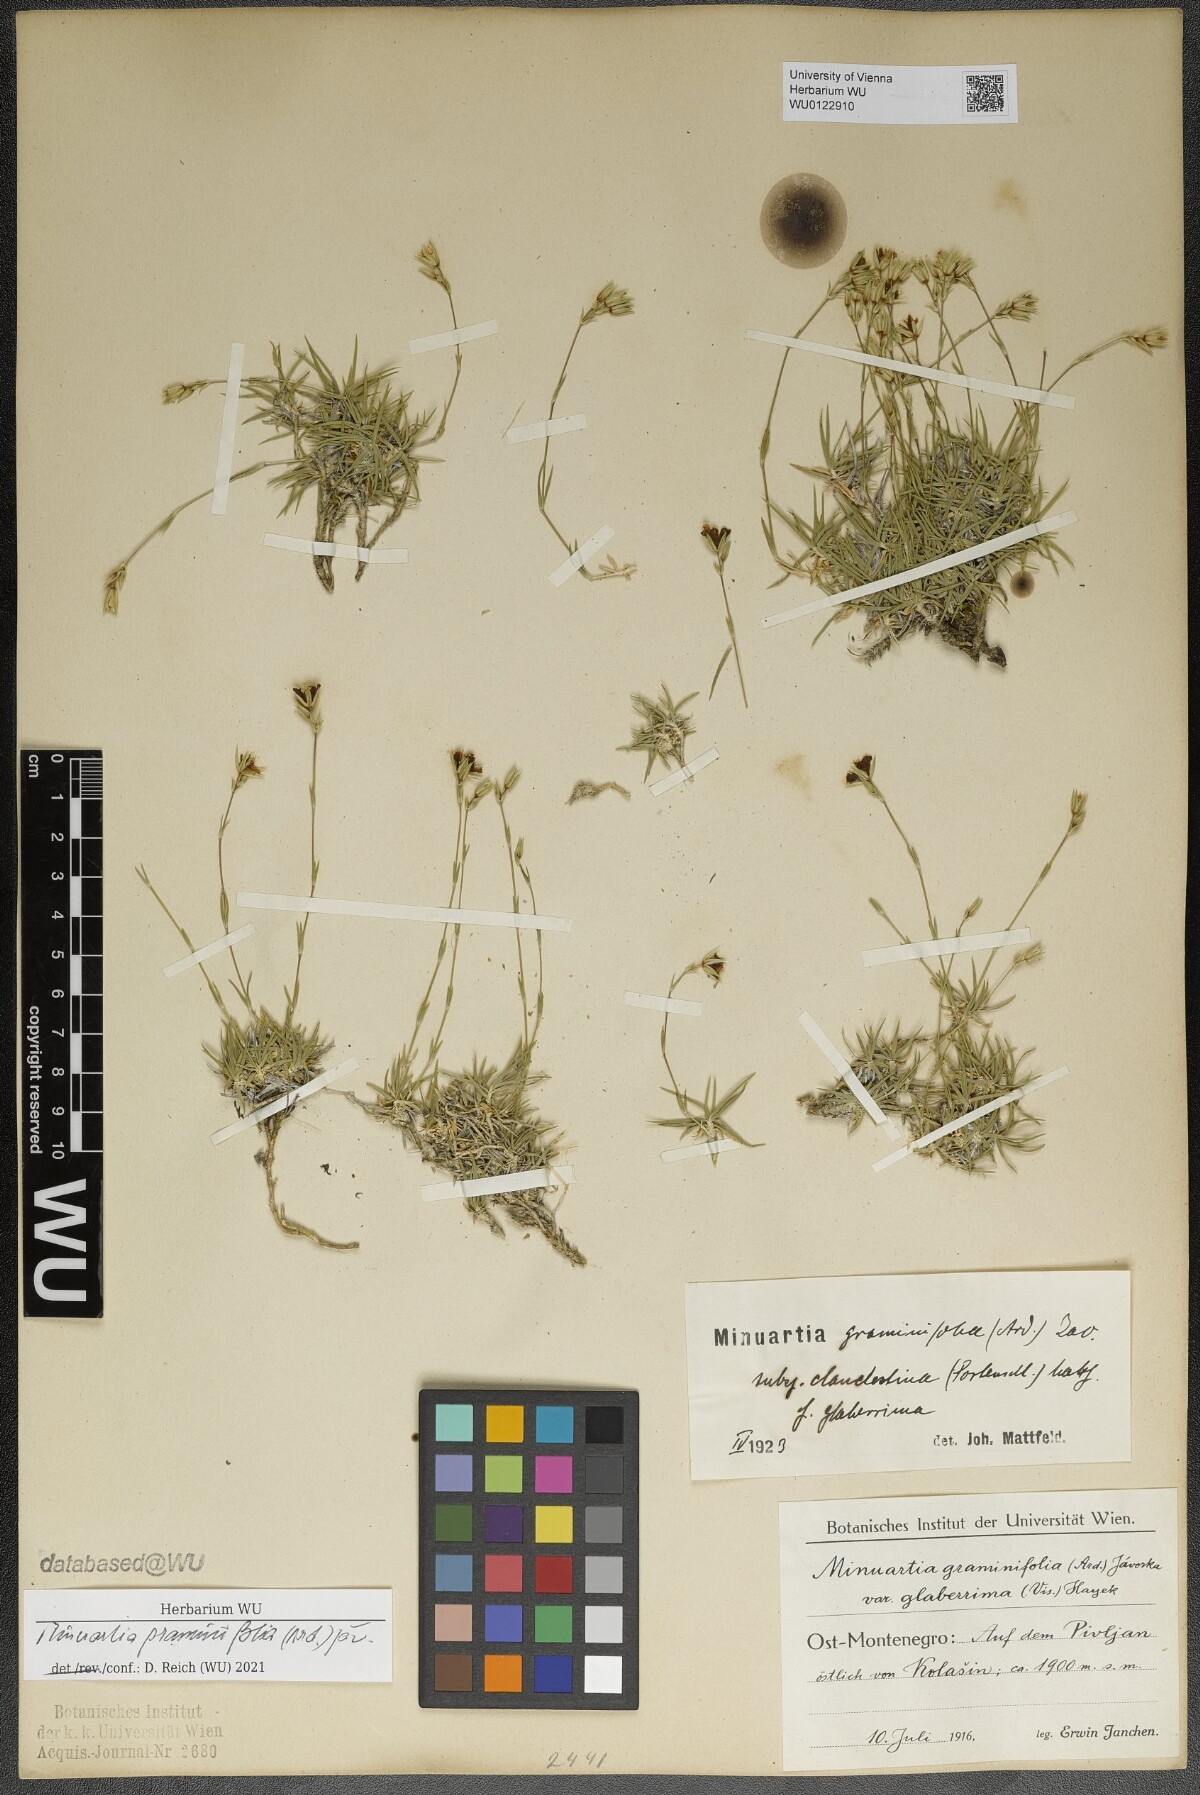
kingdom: Plantae
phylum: Tracheophyta
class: Magnoliopsida
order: Caryophyllales
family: Caryophyllaceae
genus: Mcneillia
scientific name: Mcneillia graminifolia
